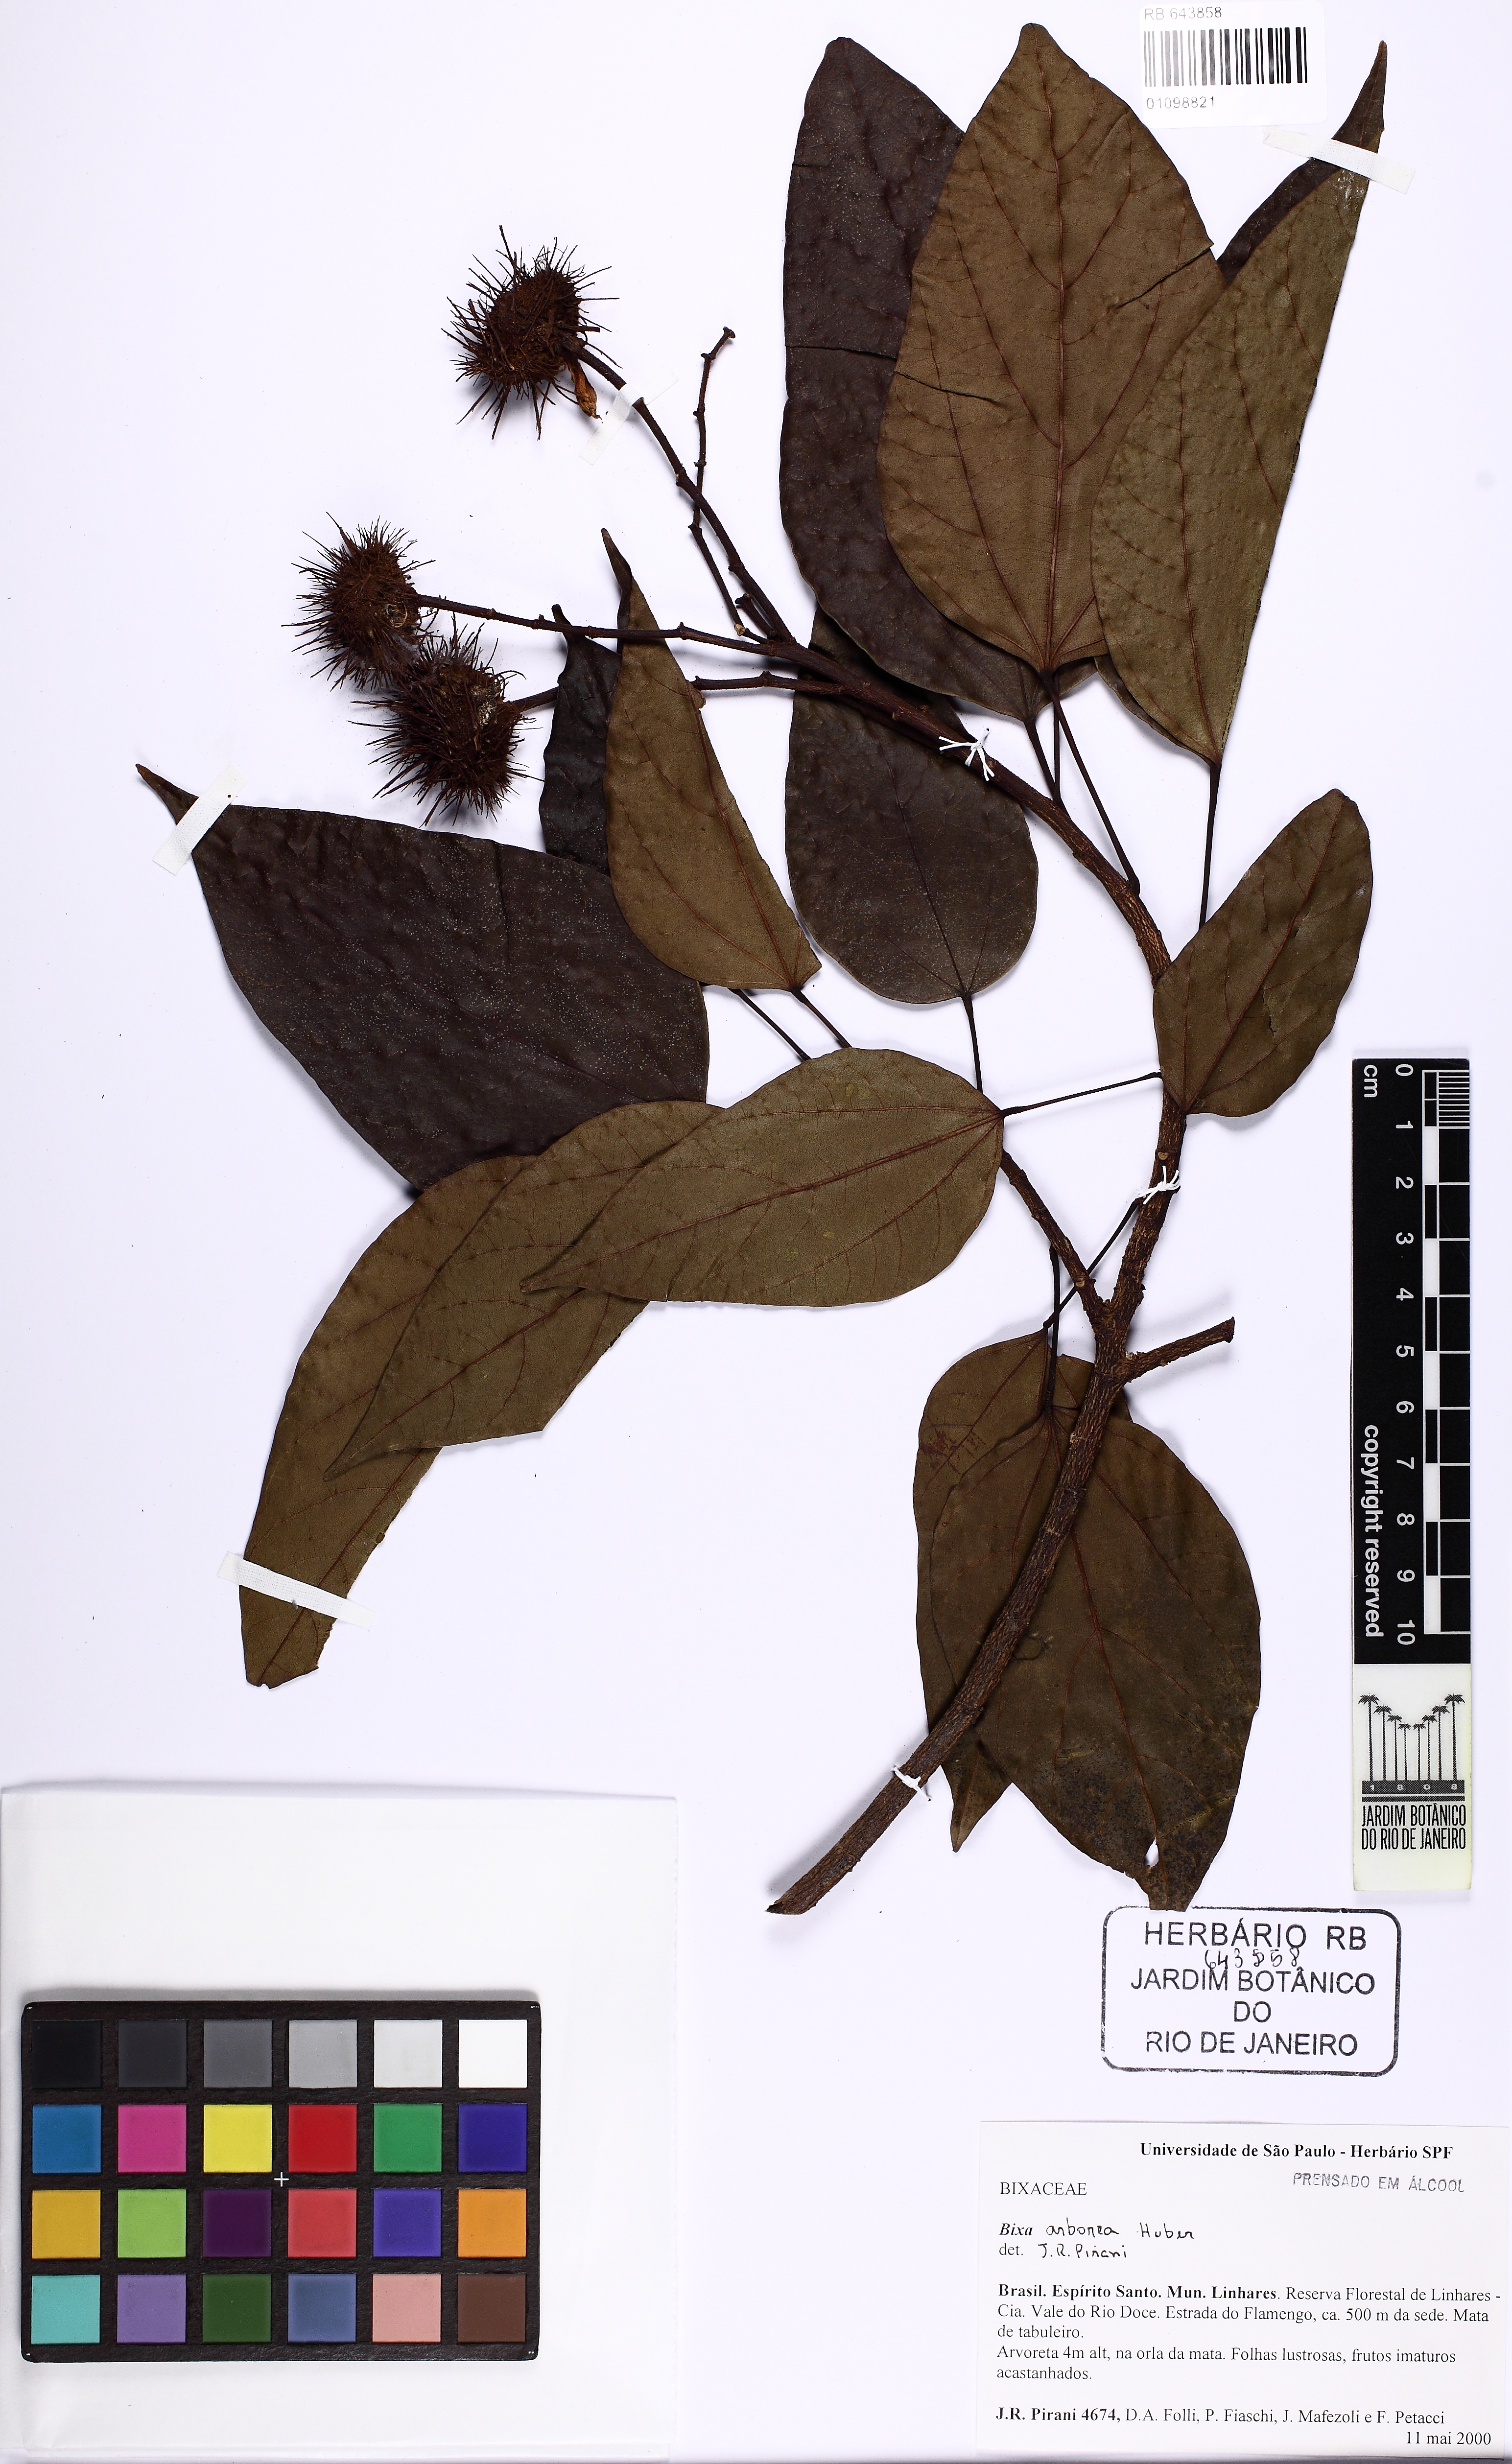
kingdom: Plantae
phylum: Tracheophyta
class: Magnoliopsida
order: Malvales
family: Bixaceae
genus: Bixa
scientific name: Bixa atlantica
